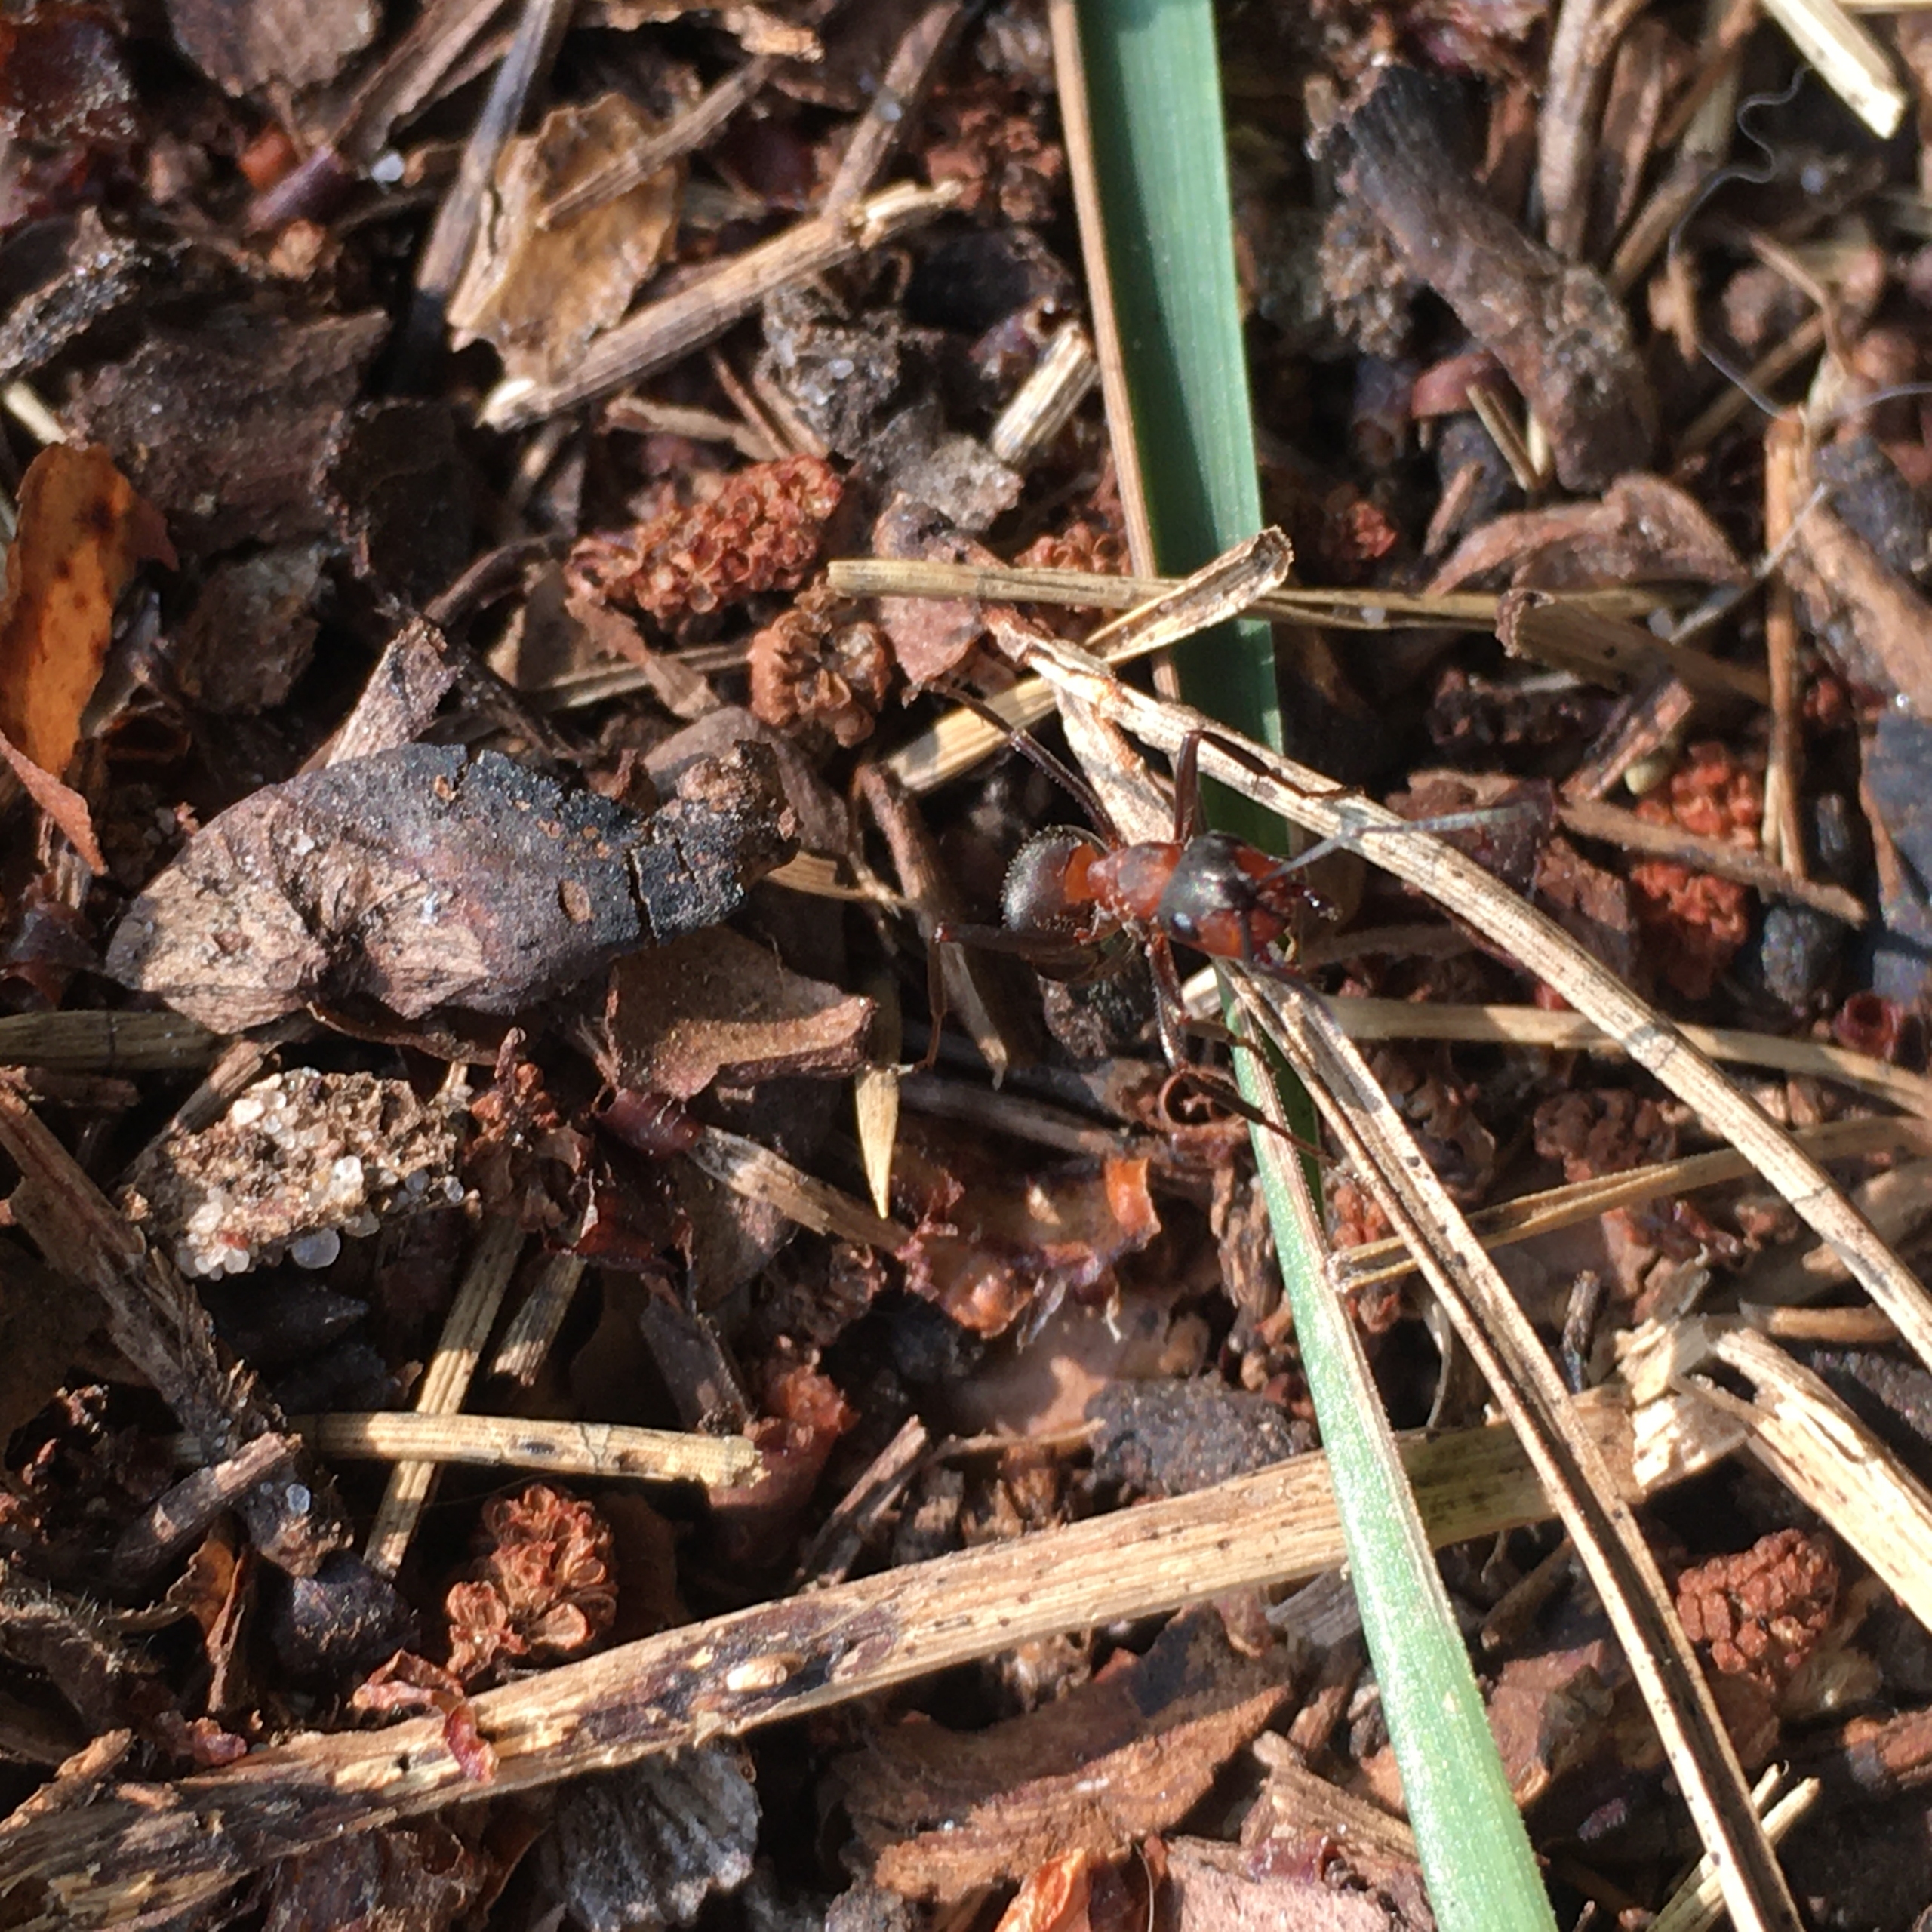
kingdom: Animalia
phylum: Arthropoda
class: Insecta
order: Hymenoptera
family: Formicidae
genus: Formica
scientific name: Formica
